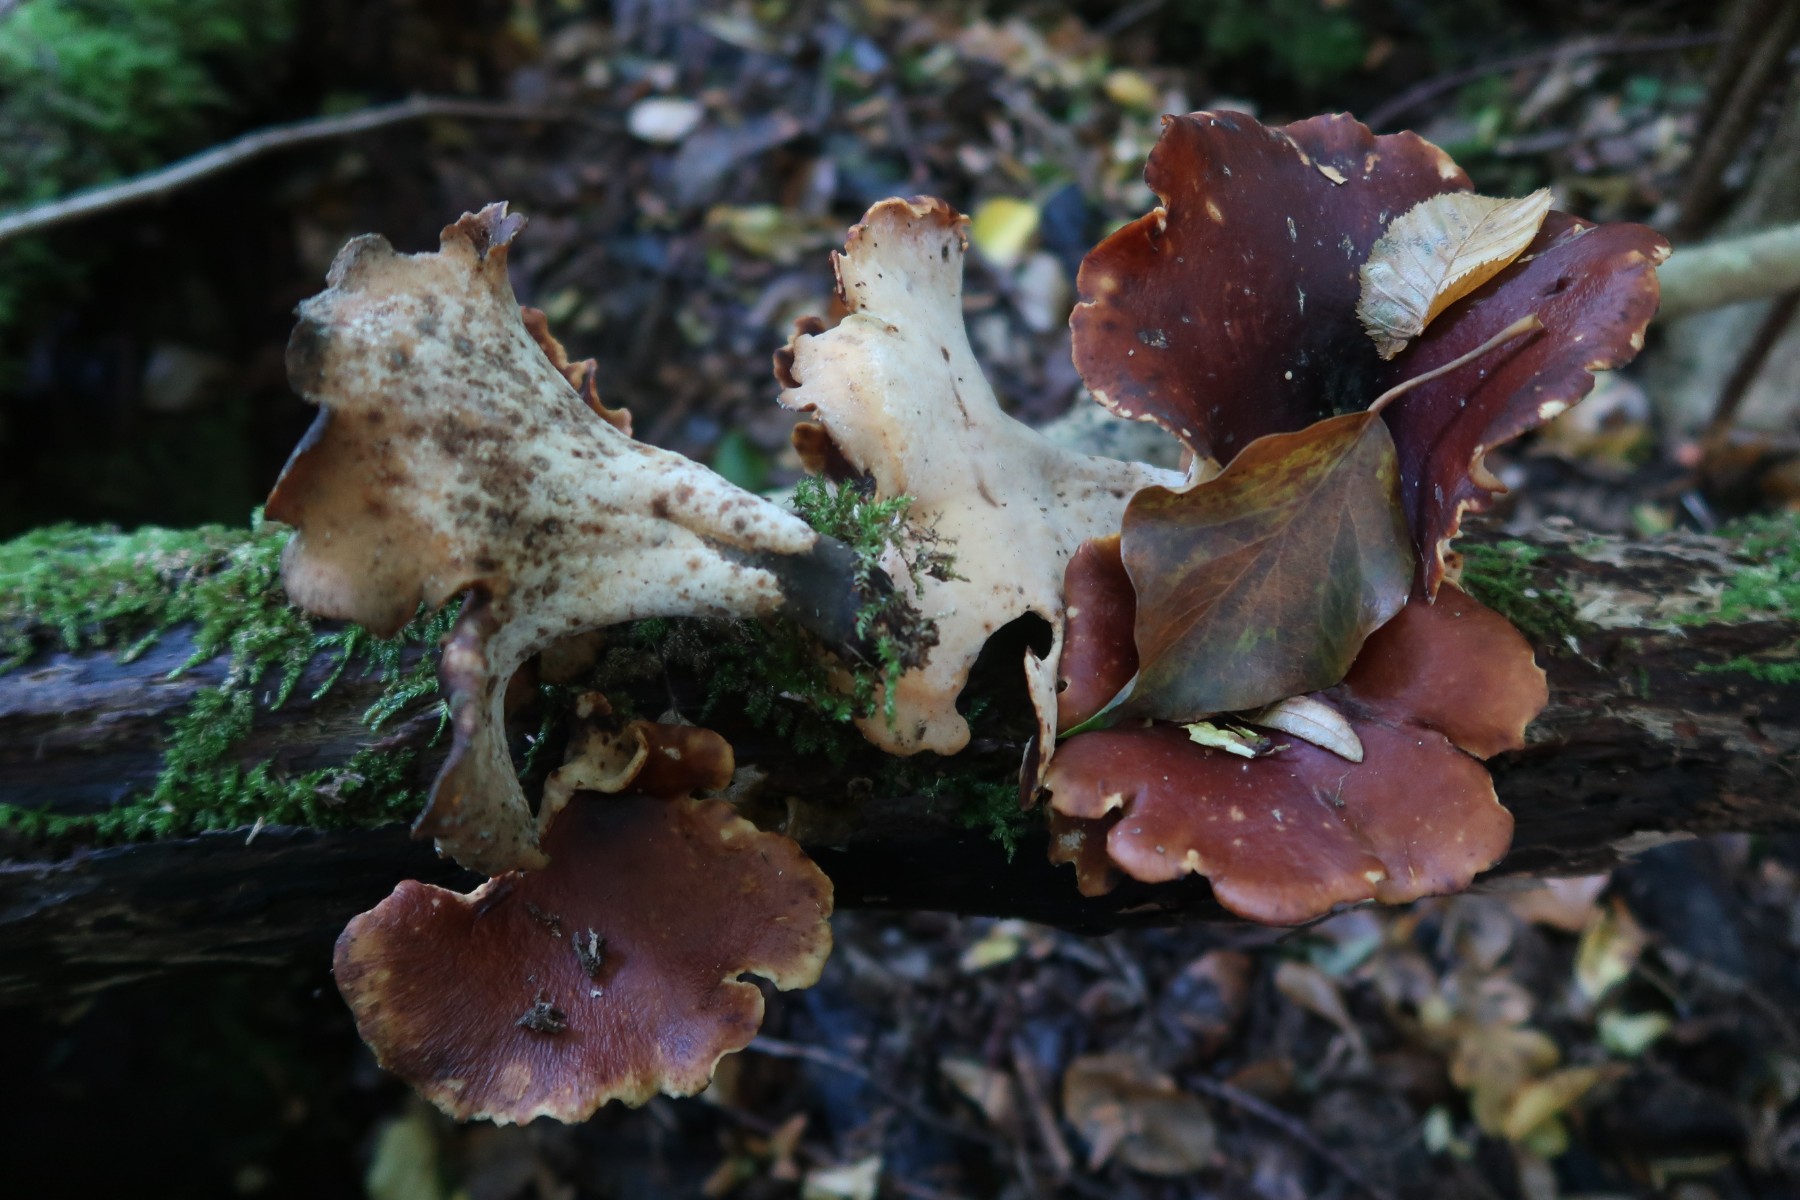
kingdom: Fungi
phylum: Basidiomycota
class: Agaricomycetes
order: Polyporales
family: Polyporaceae
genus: Picipes
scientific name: Picipes badius
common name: kastaniebrun stilkporesvamp
